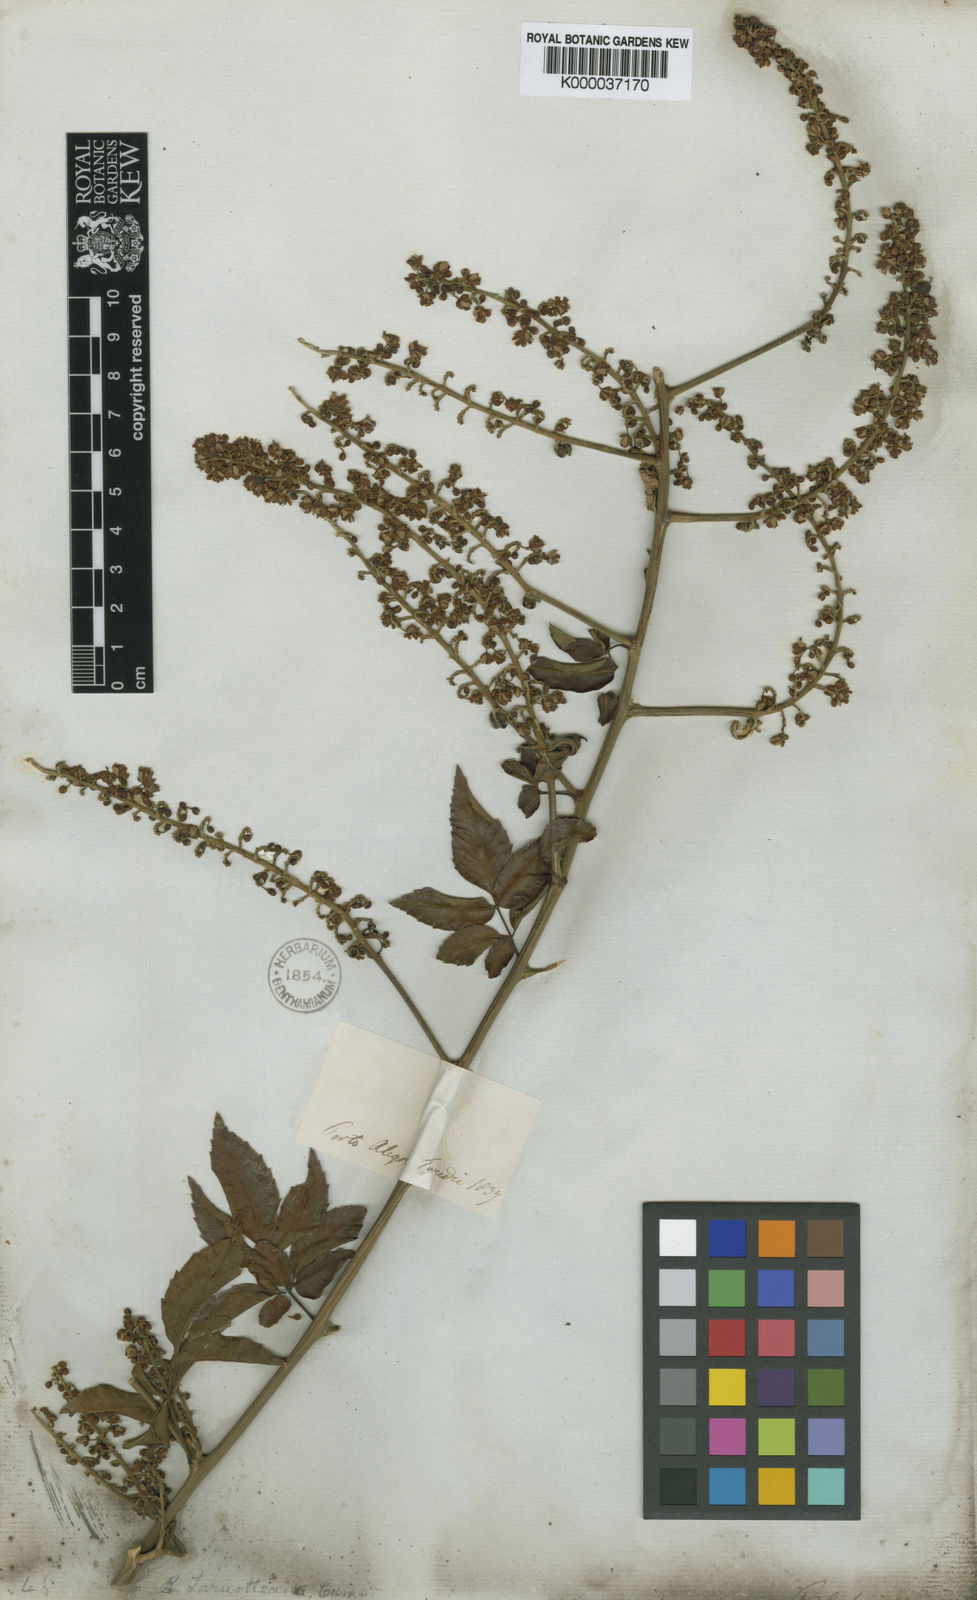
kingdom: Plantae
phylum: Tracheophyta
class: Magnoliopsida
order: Sapindales
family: Sapindaceae
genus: Serjania
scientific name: Serjania laruotteana
